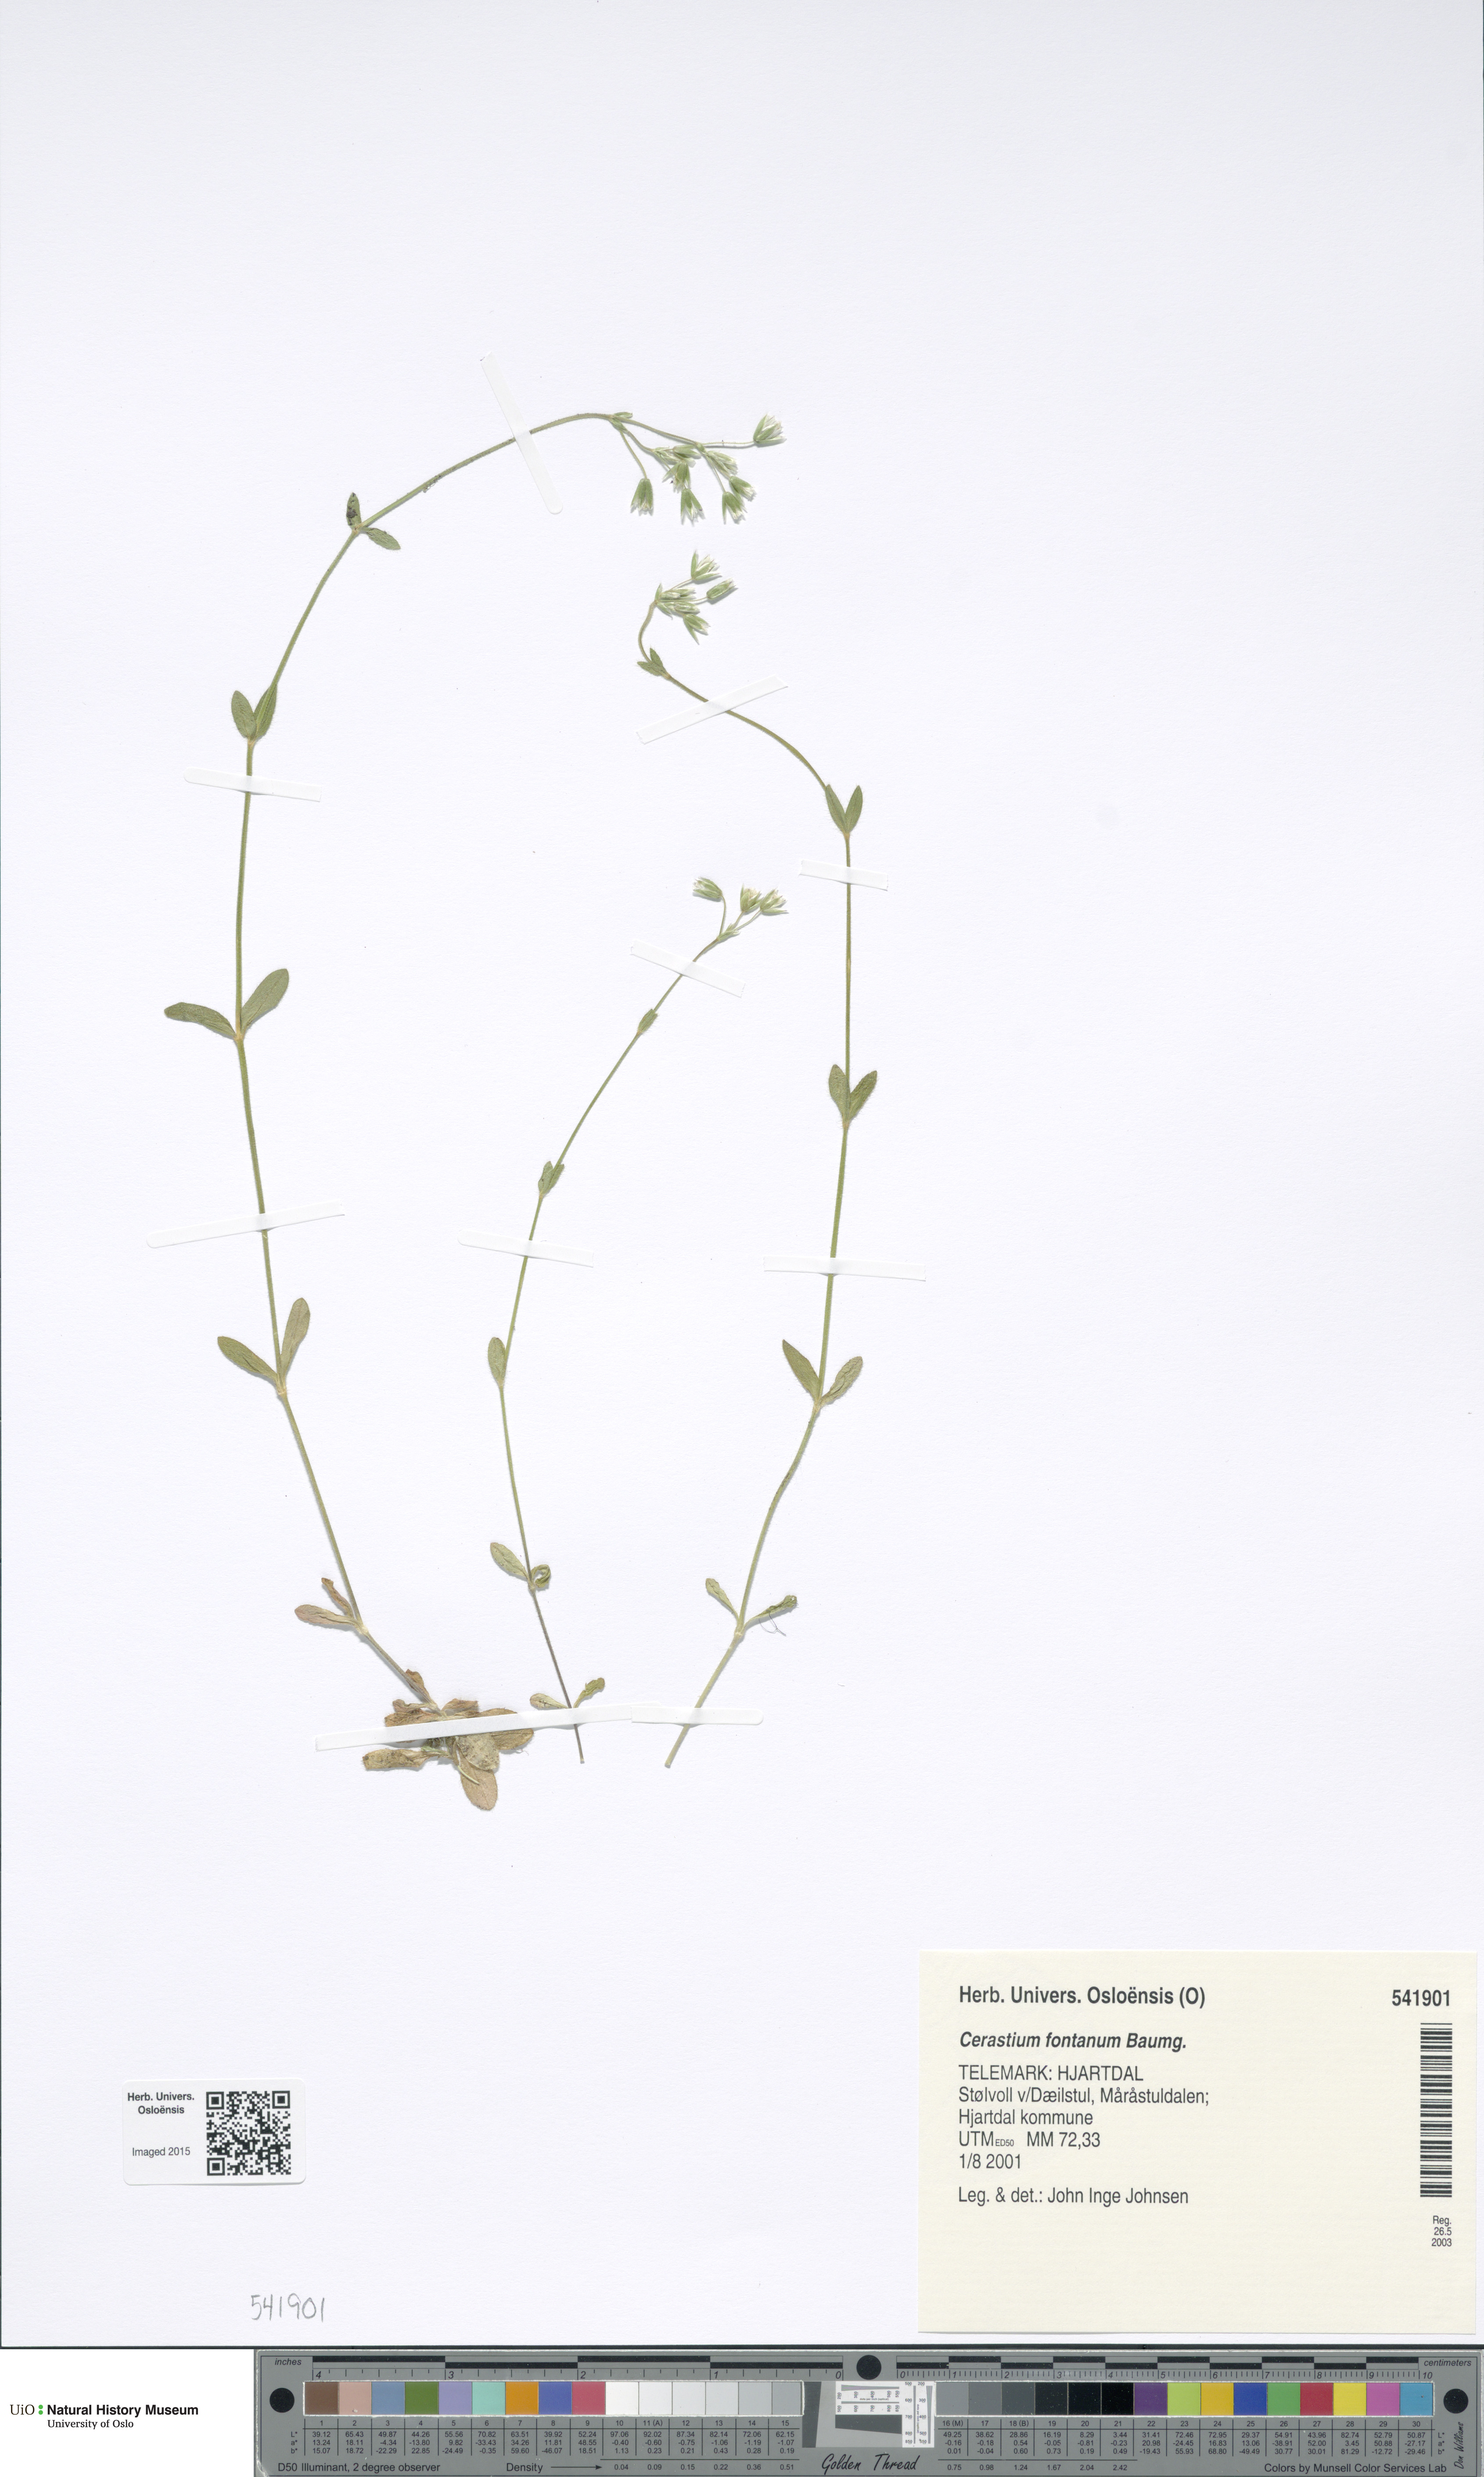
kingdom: Plantae
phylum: Tracheophyta
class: Magnoliopsida
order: Caryophyllales
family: Caryophyllaceae
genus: Cerastium
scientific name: Cerastium fontanum
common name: Common mouse-ear
